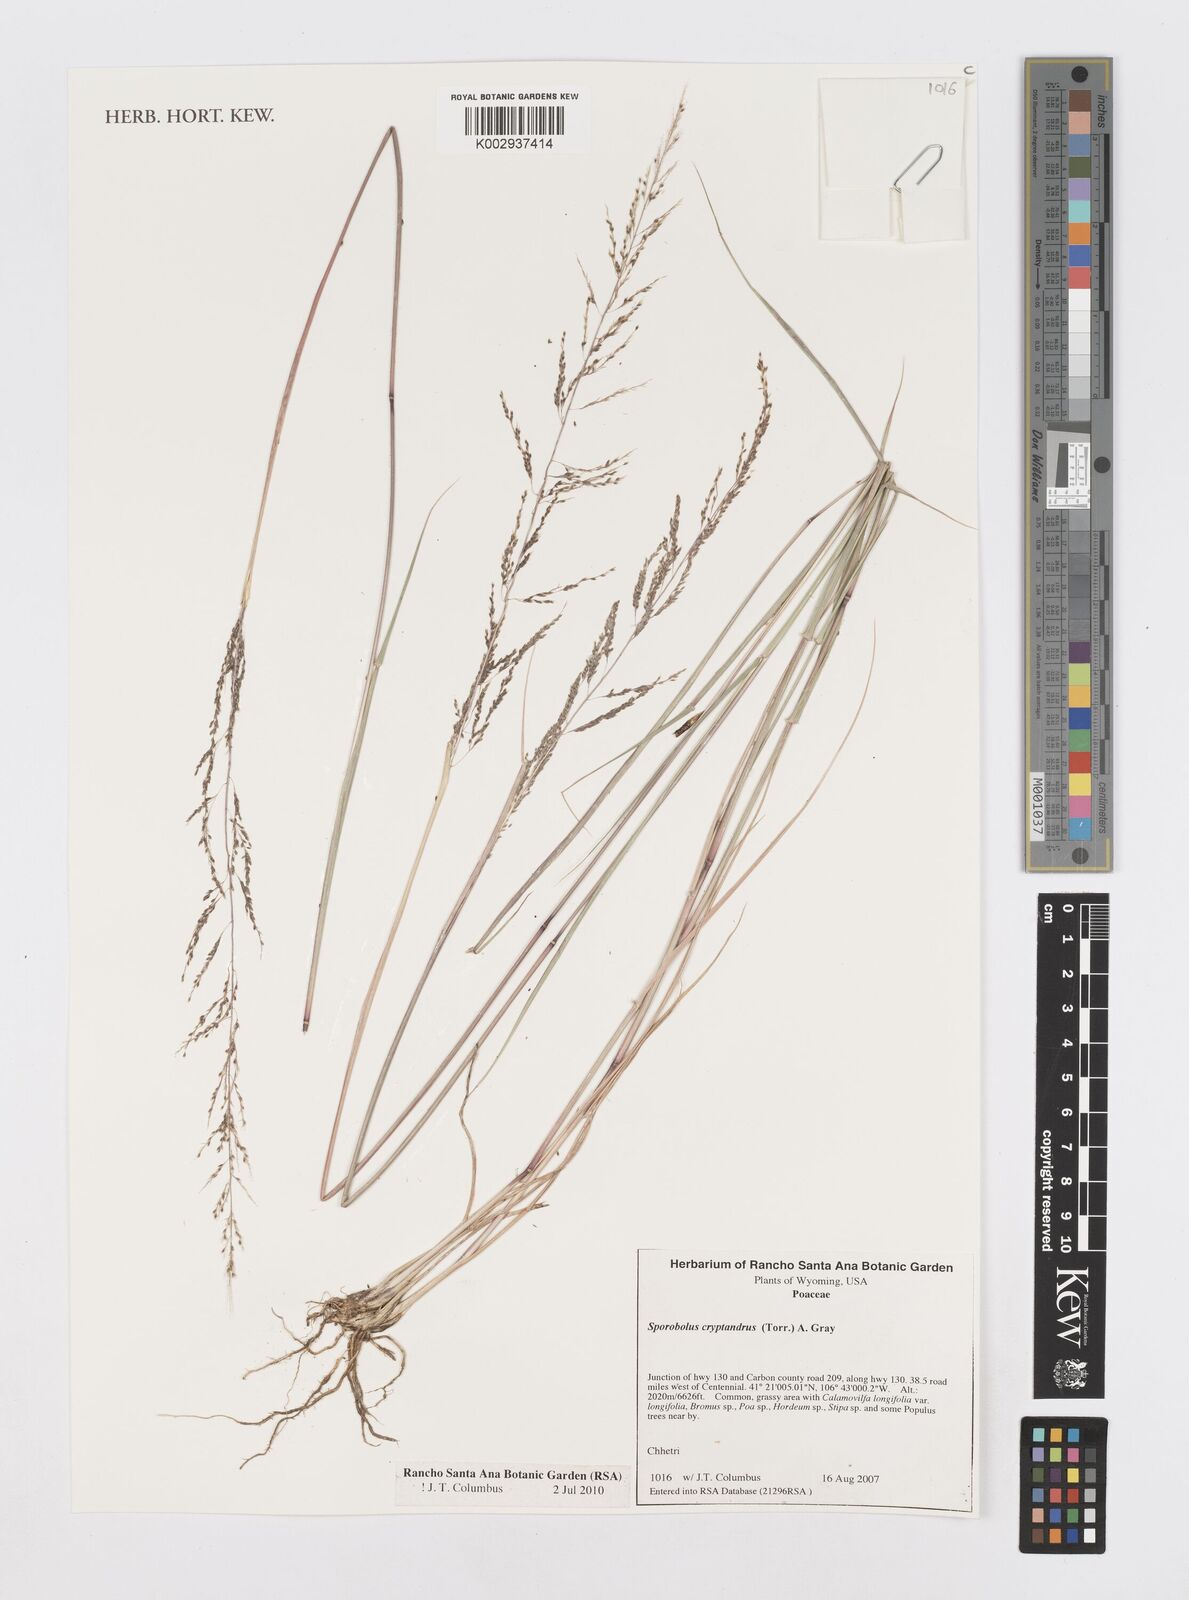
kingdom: Plantae
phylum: Tracheophyta
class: Liliopsida
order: Poales
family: Poaceae
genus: Sporobolus
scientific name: Sporobolus cryptandrus
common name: Sand dropseed
